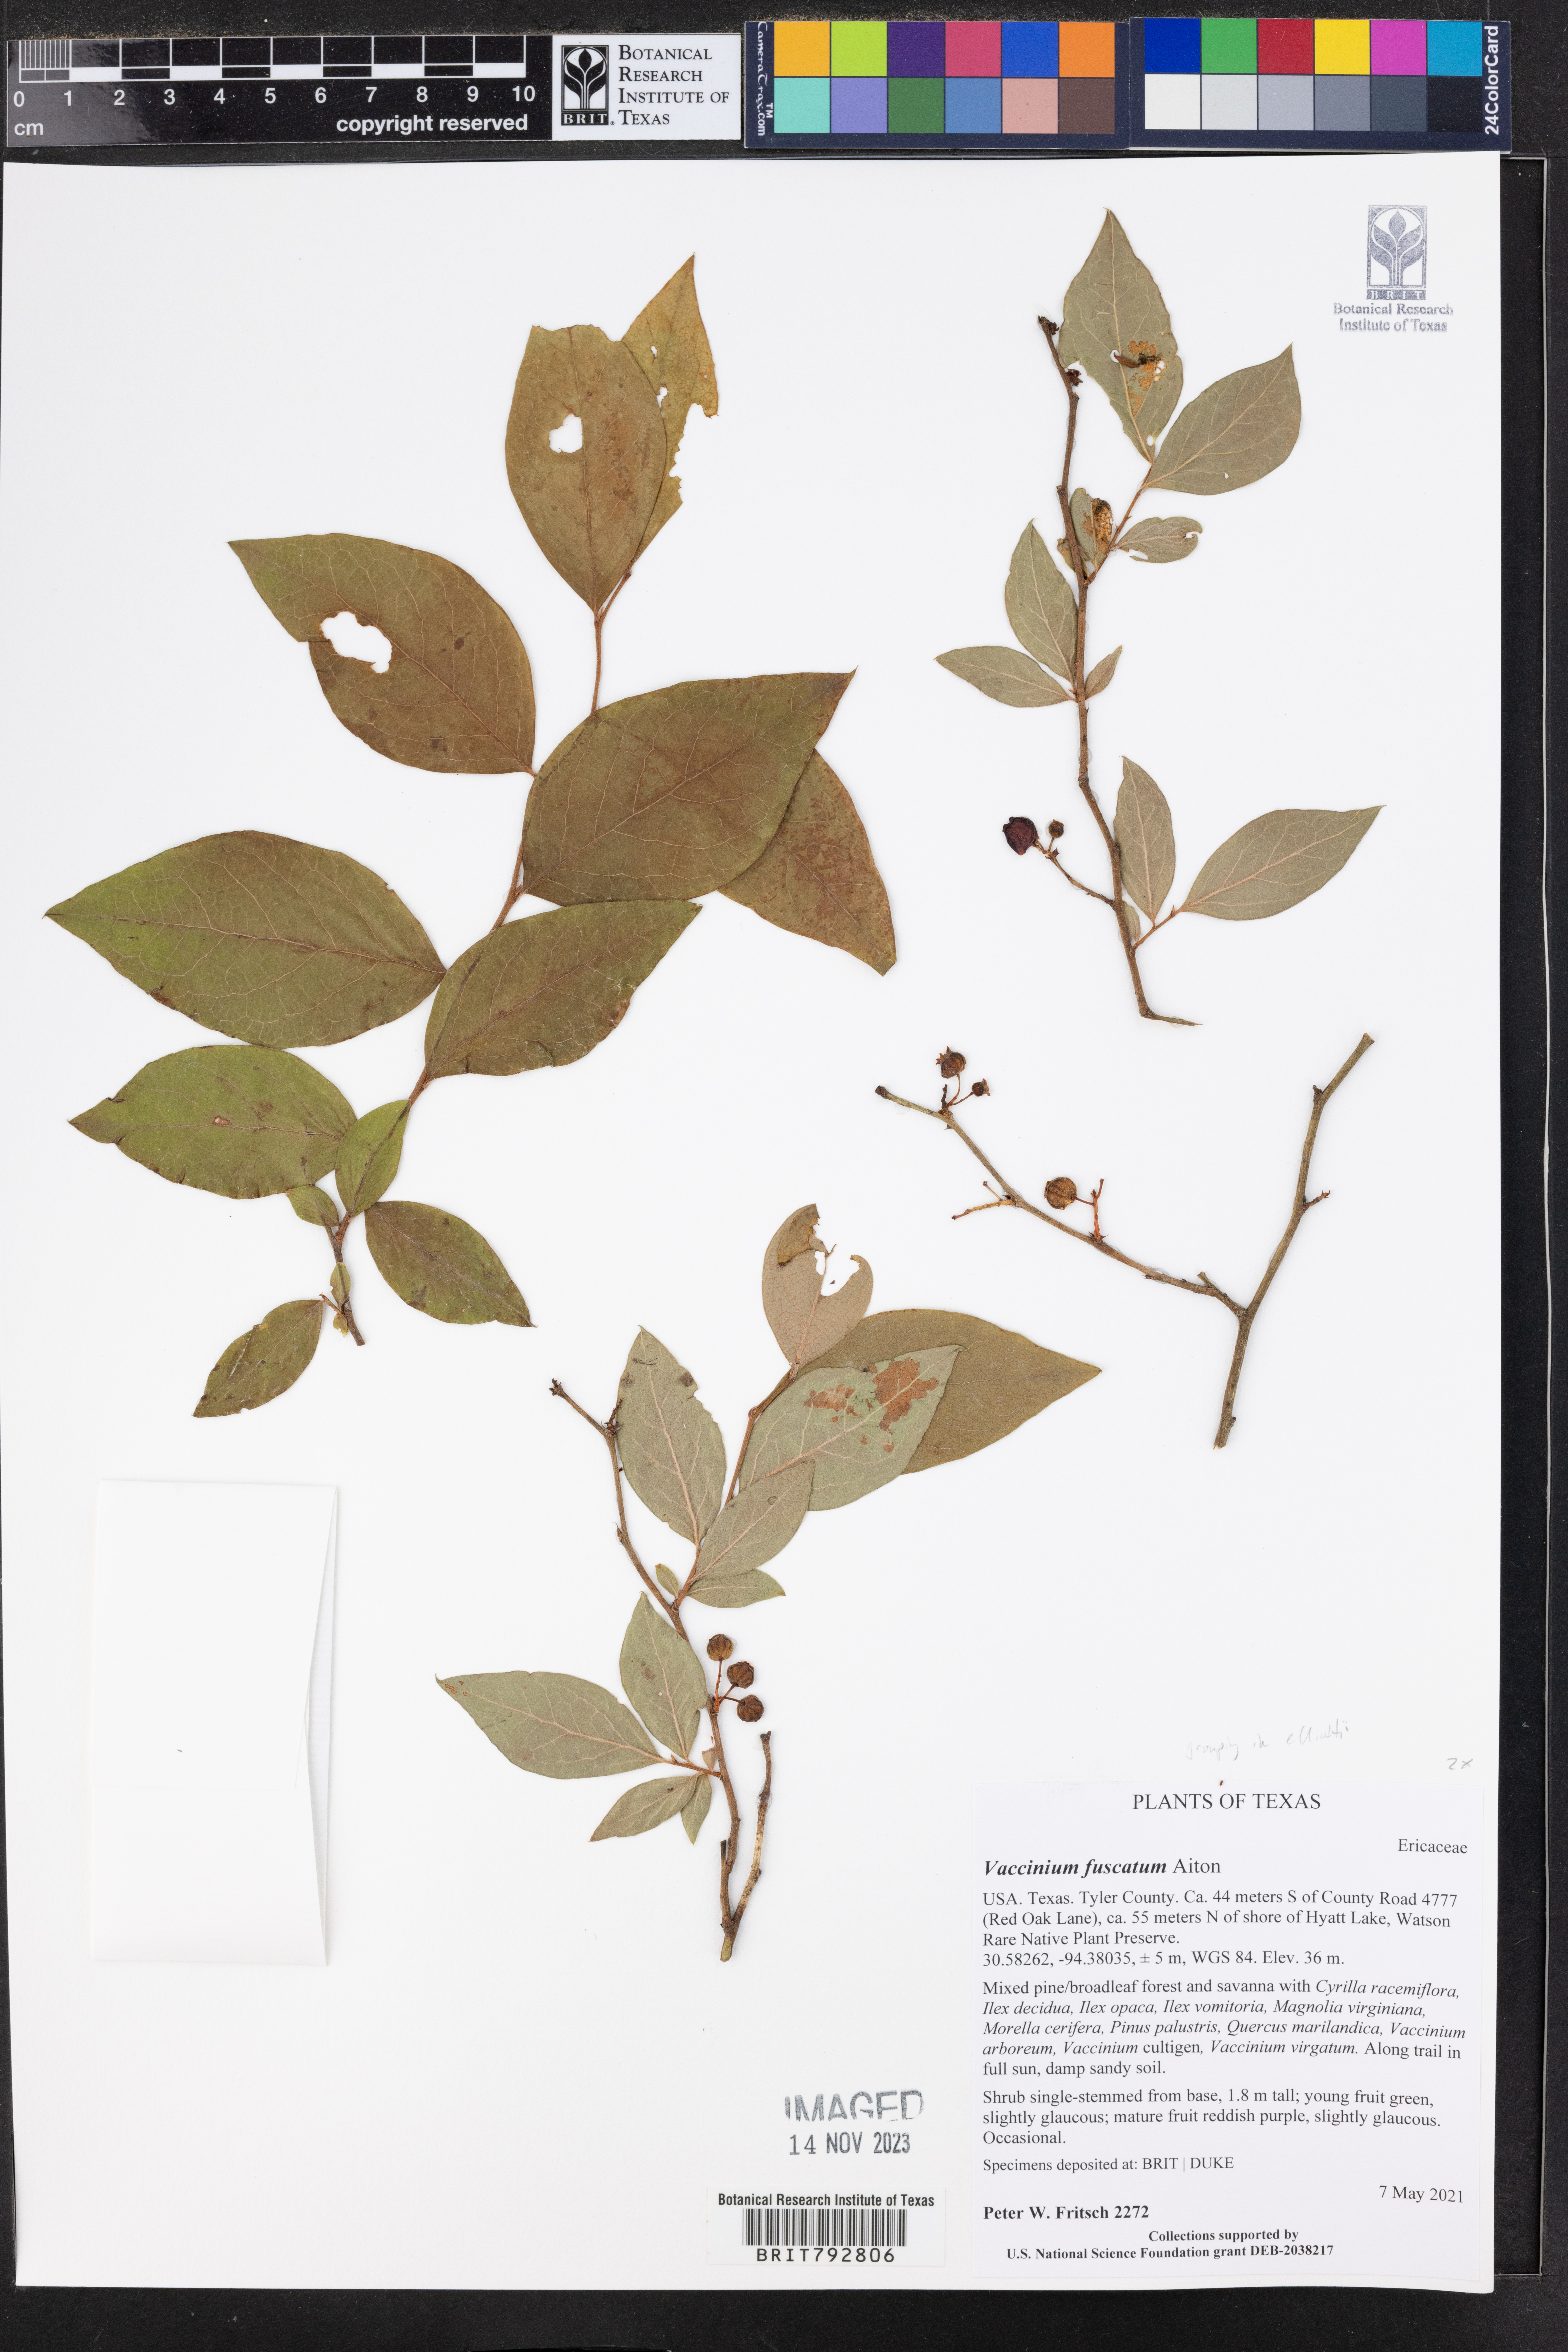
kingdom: Plantae
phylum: Tracheophyta
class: Magnoliopsida
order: Ericales
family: Ericaceae
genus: Vaccinium
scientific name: Vaccinium corymbosum
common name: Blueberry
